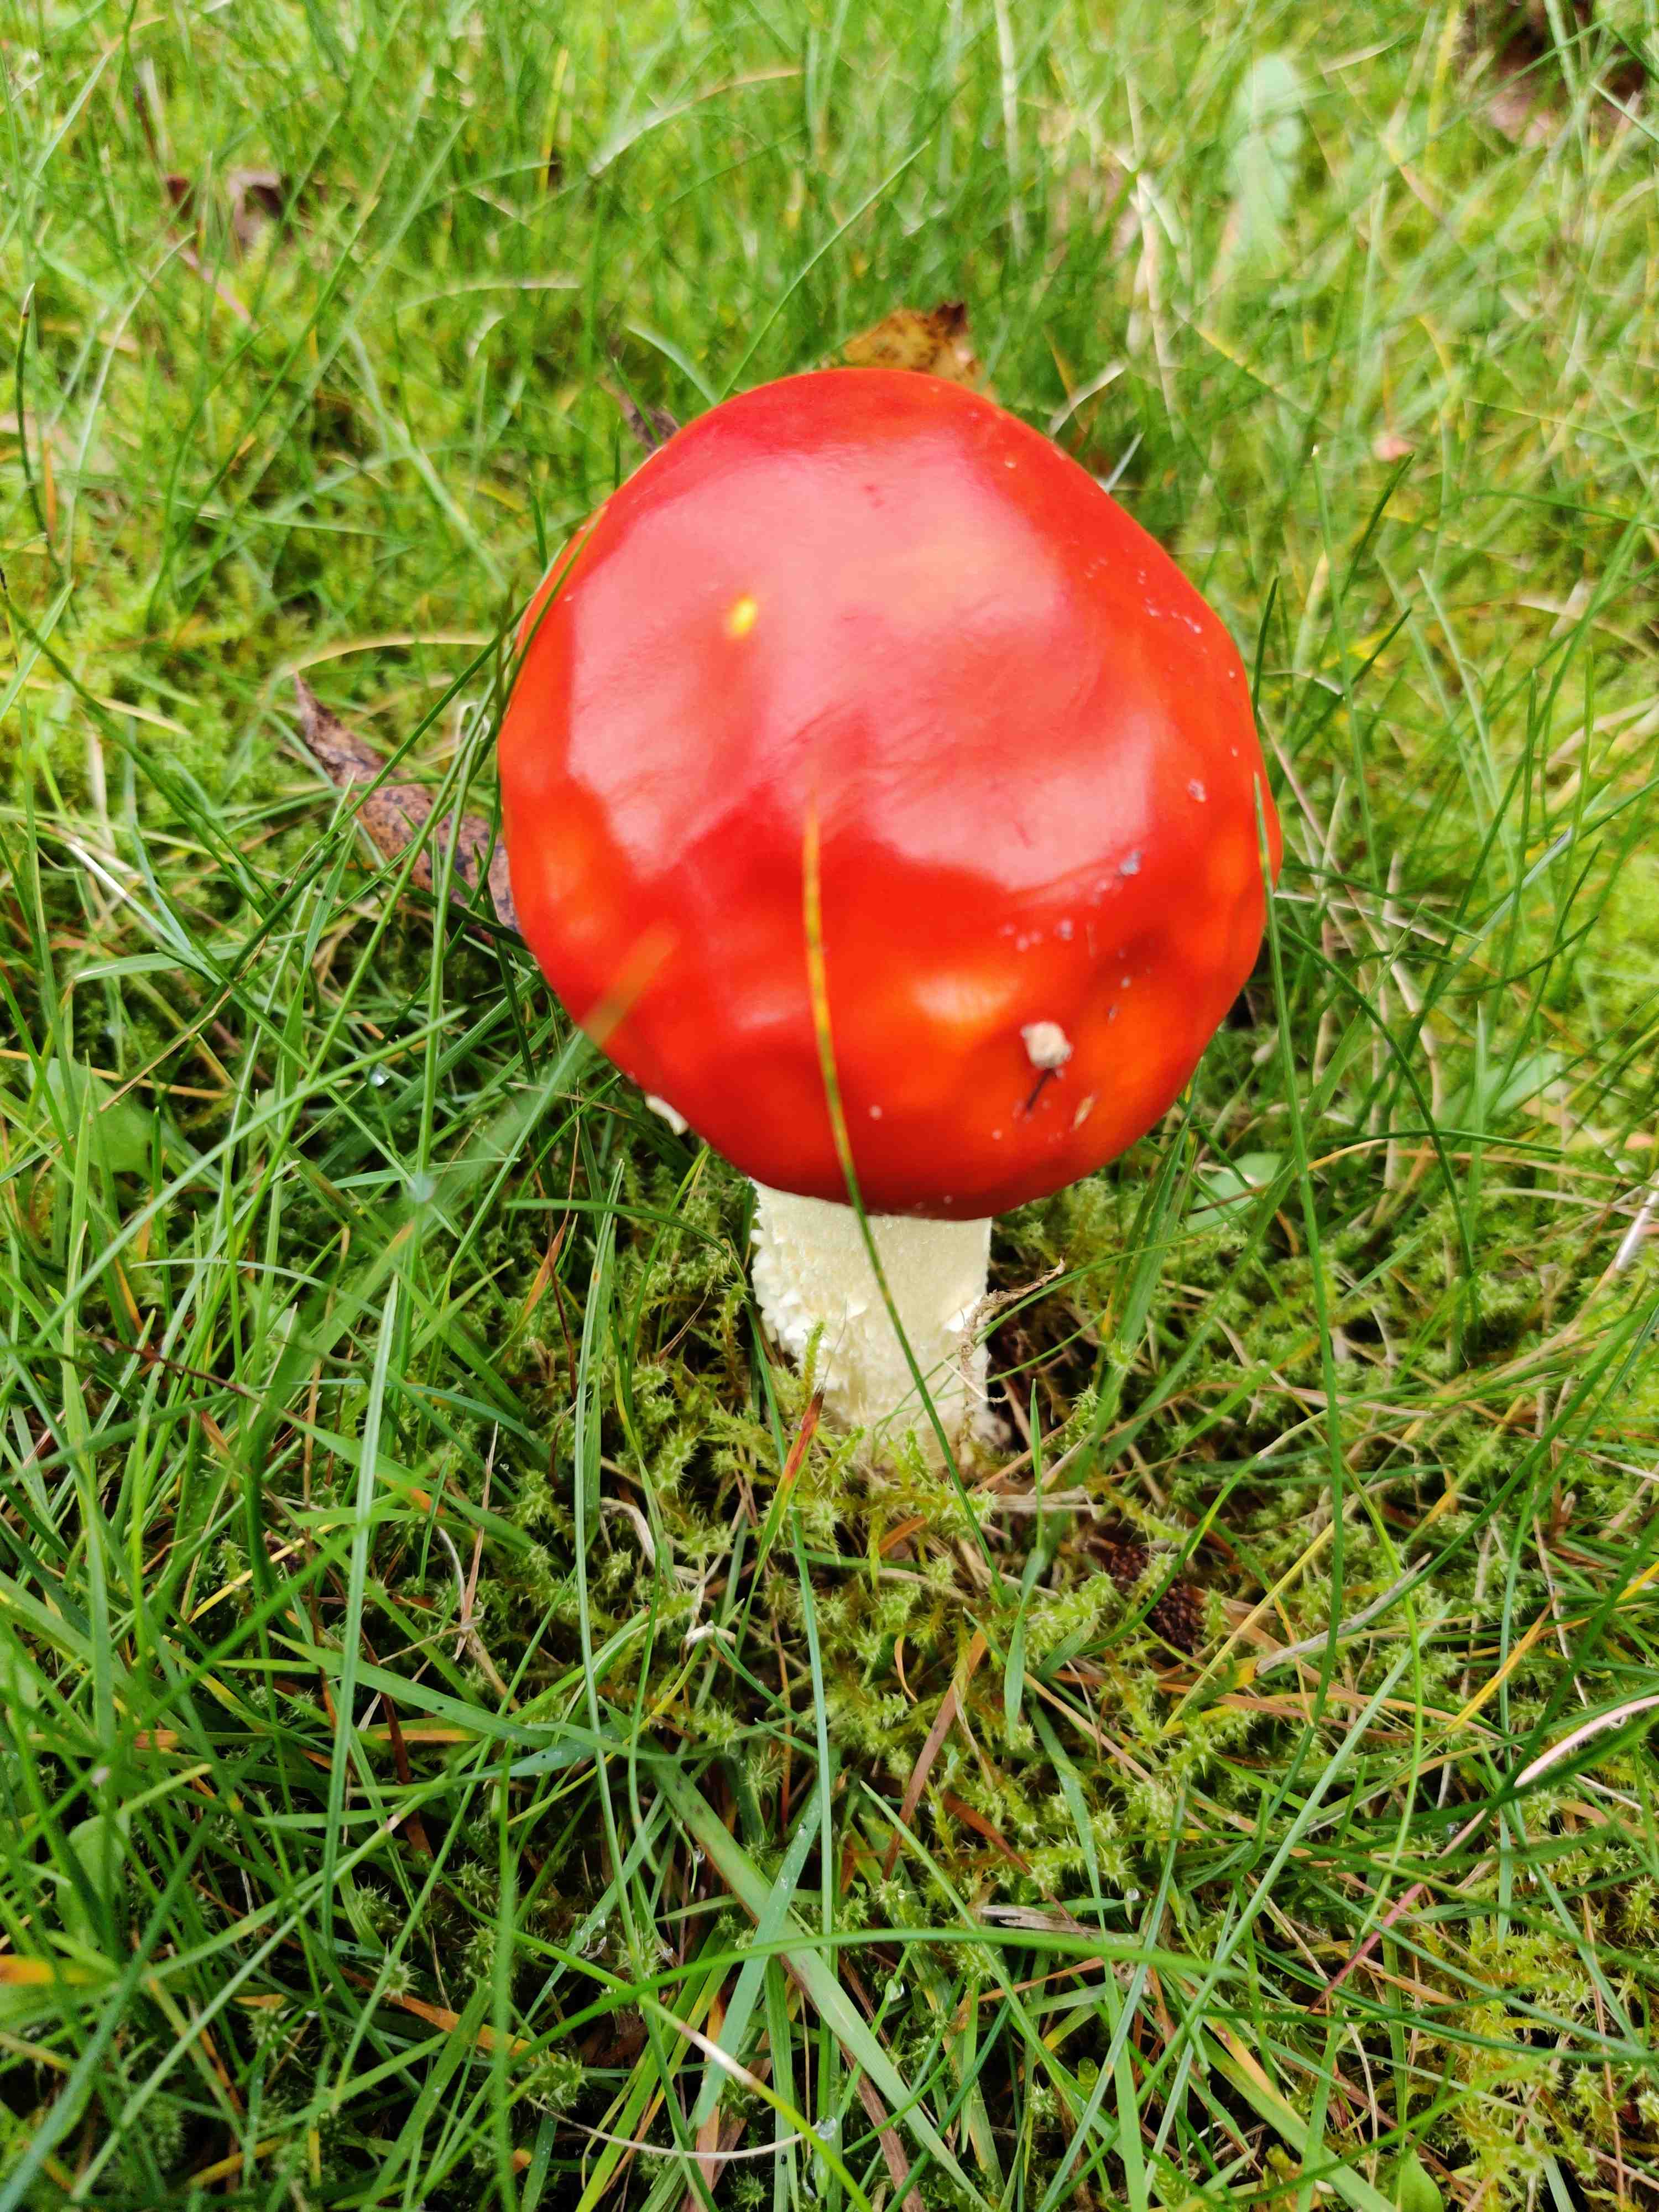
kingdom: Fungi
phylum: Basidiomycota
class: Agaricomycetes
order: Agaricales
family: Amanitaceae
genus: Amanita
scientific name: Amanita muscaria
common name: rød fluesvamp
